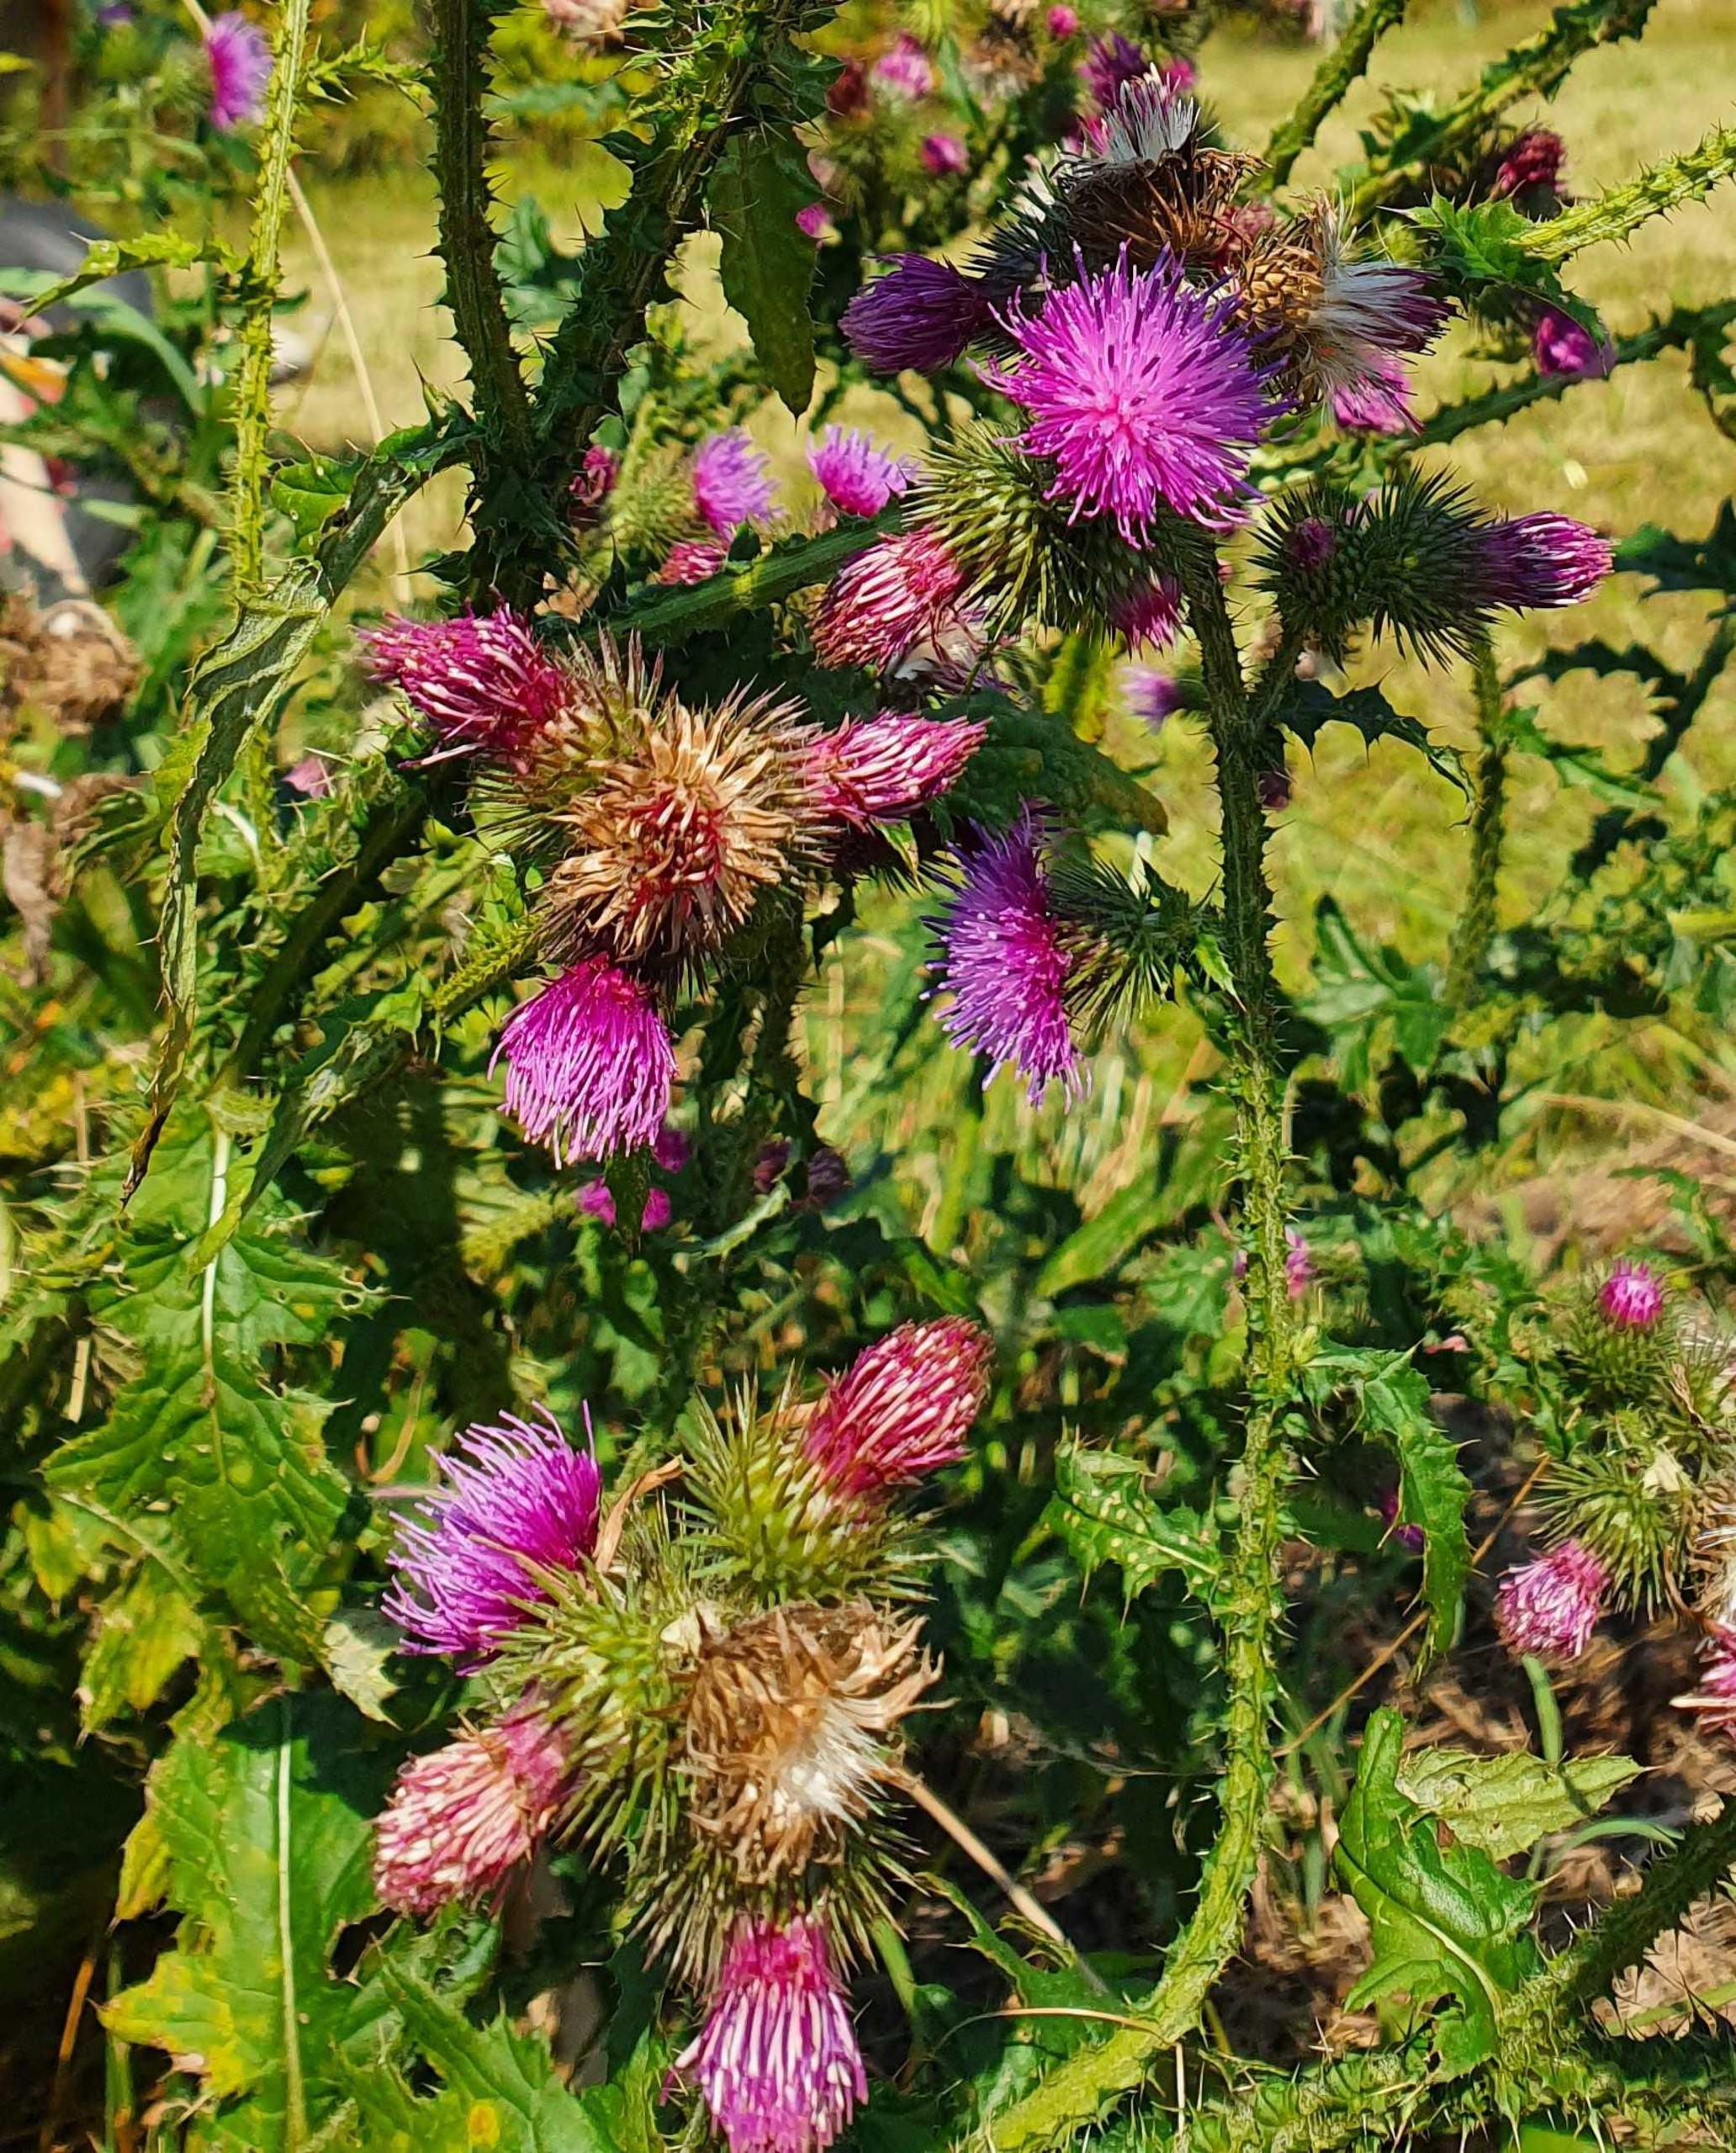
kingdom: Plantae
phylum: Tracheophyta
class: Magnoliopsida
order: Asterales
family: Asteraceae
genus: Carduus
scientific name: Carduus crispus
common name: Kruset tidsel
